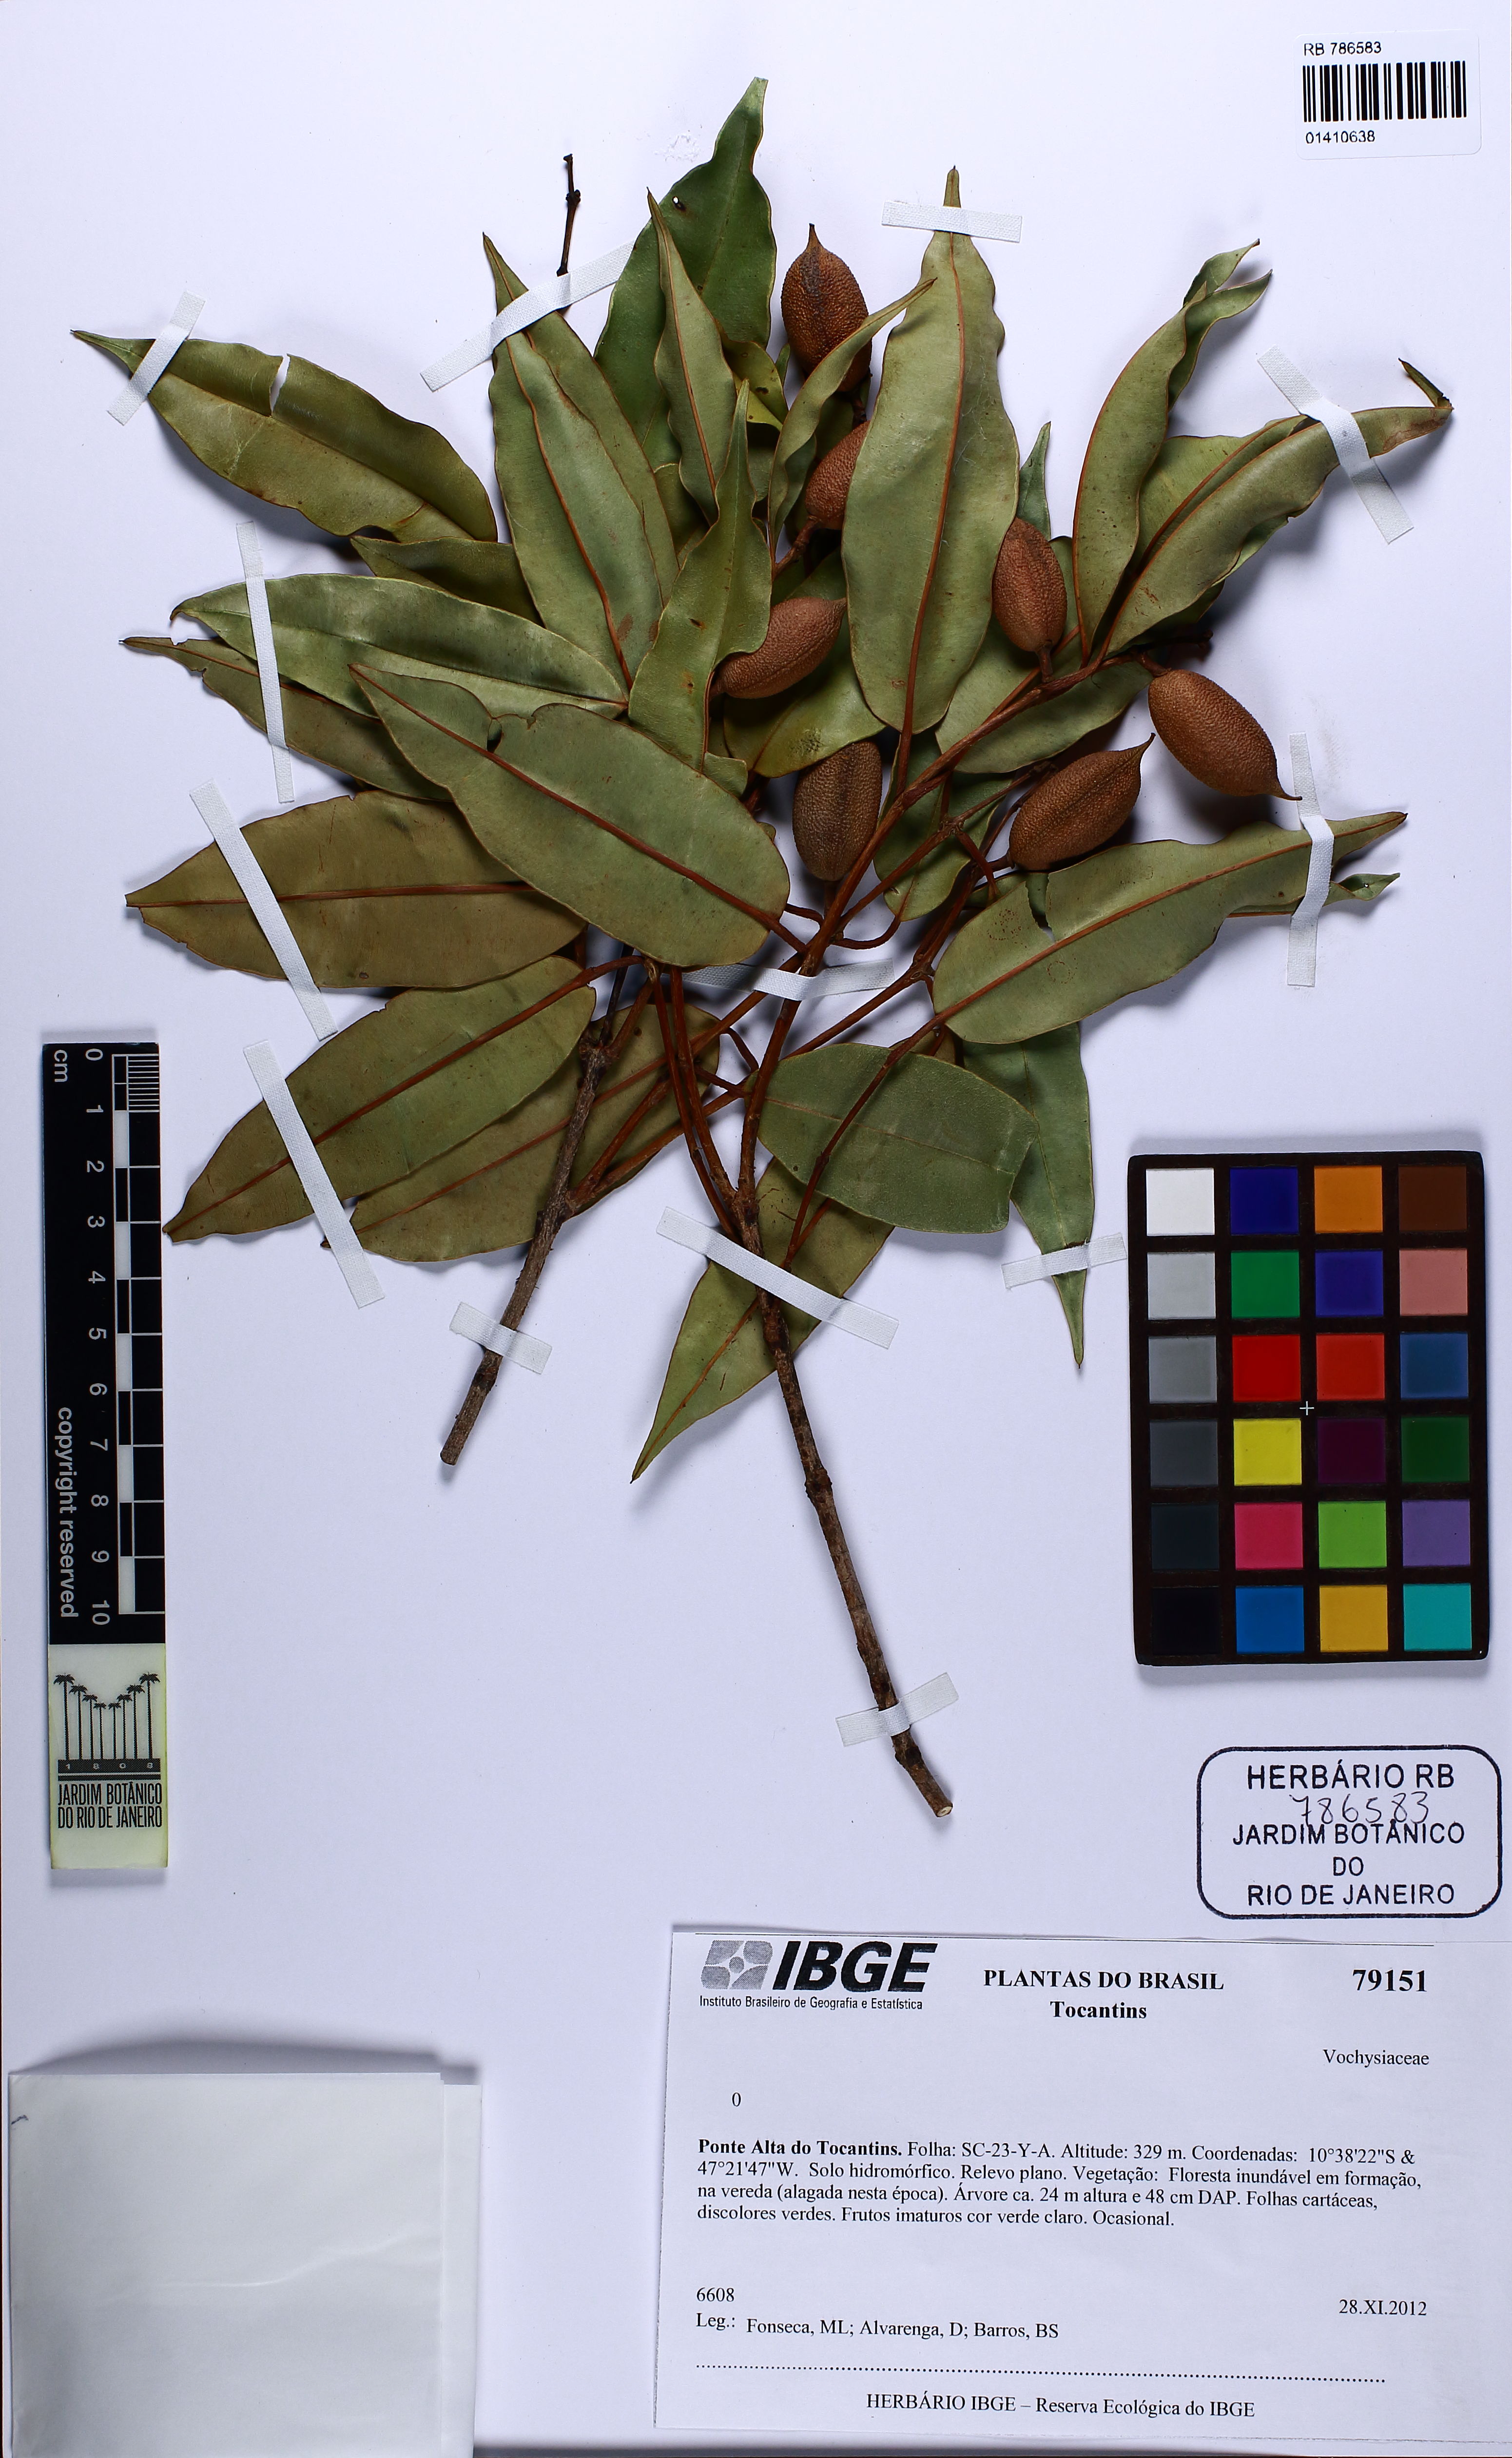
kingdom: Plantae
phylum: Tracheophyta
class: Magnoliopsida
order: Myrtales
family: Vochysiaceae
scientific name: Vochysiaceae
